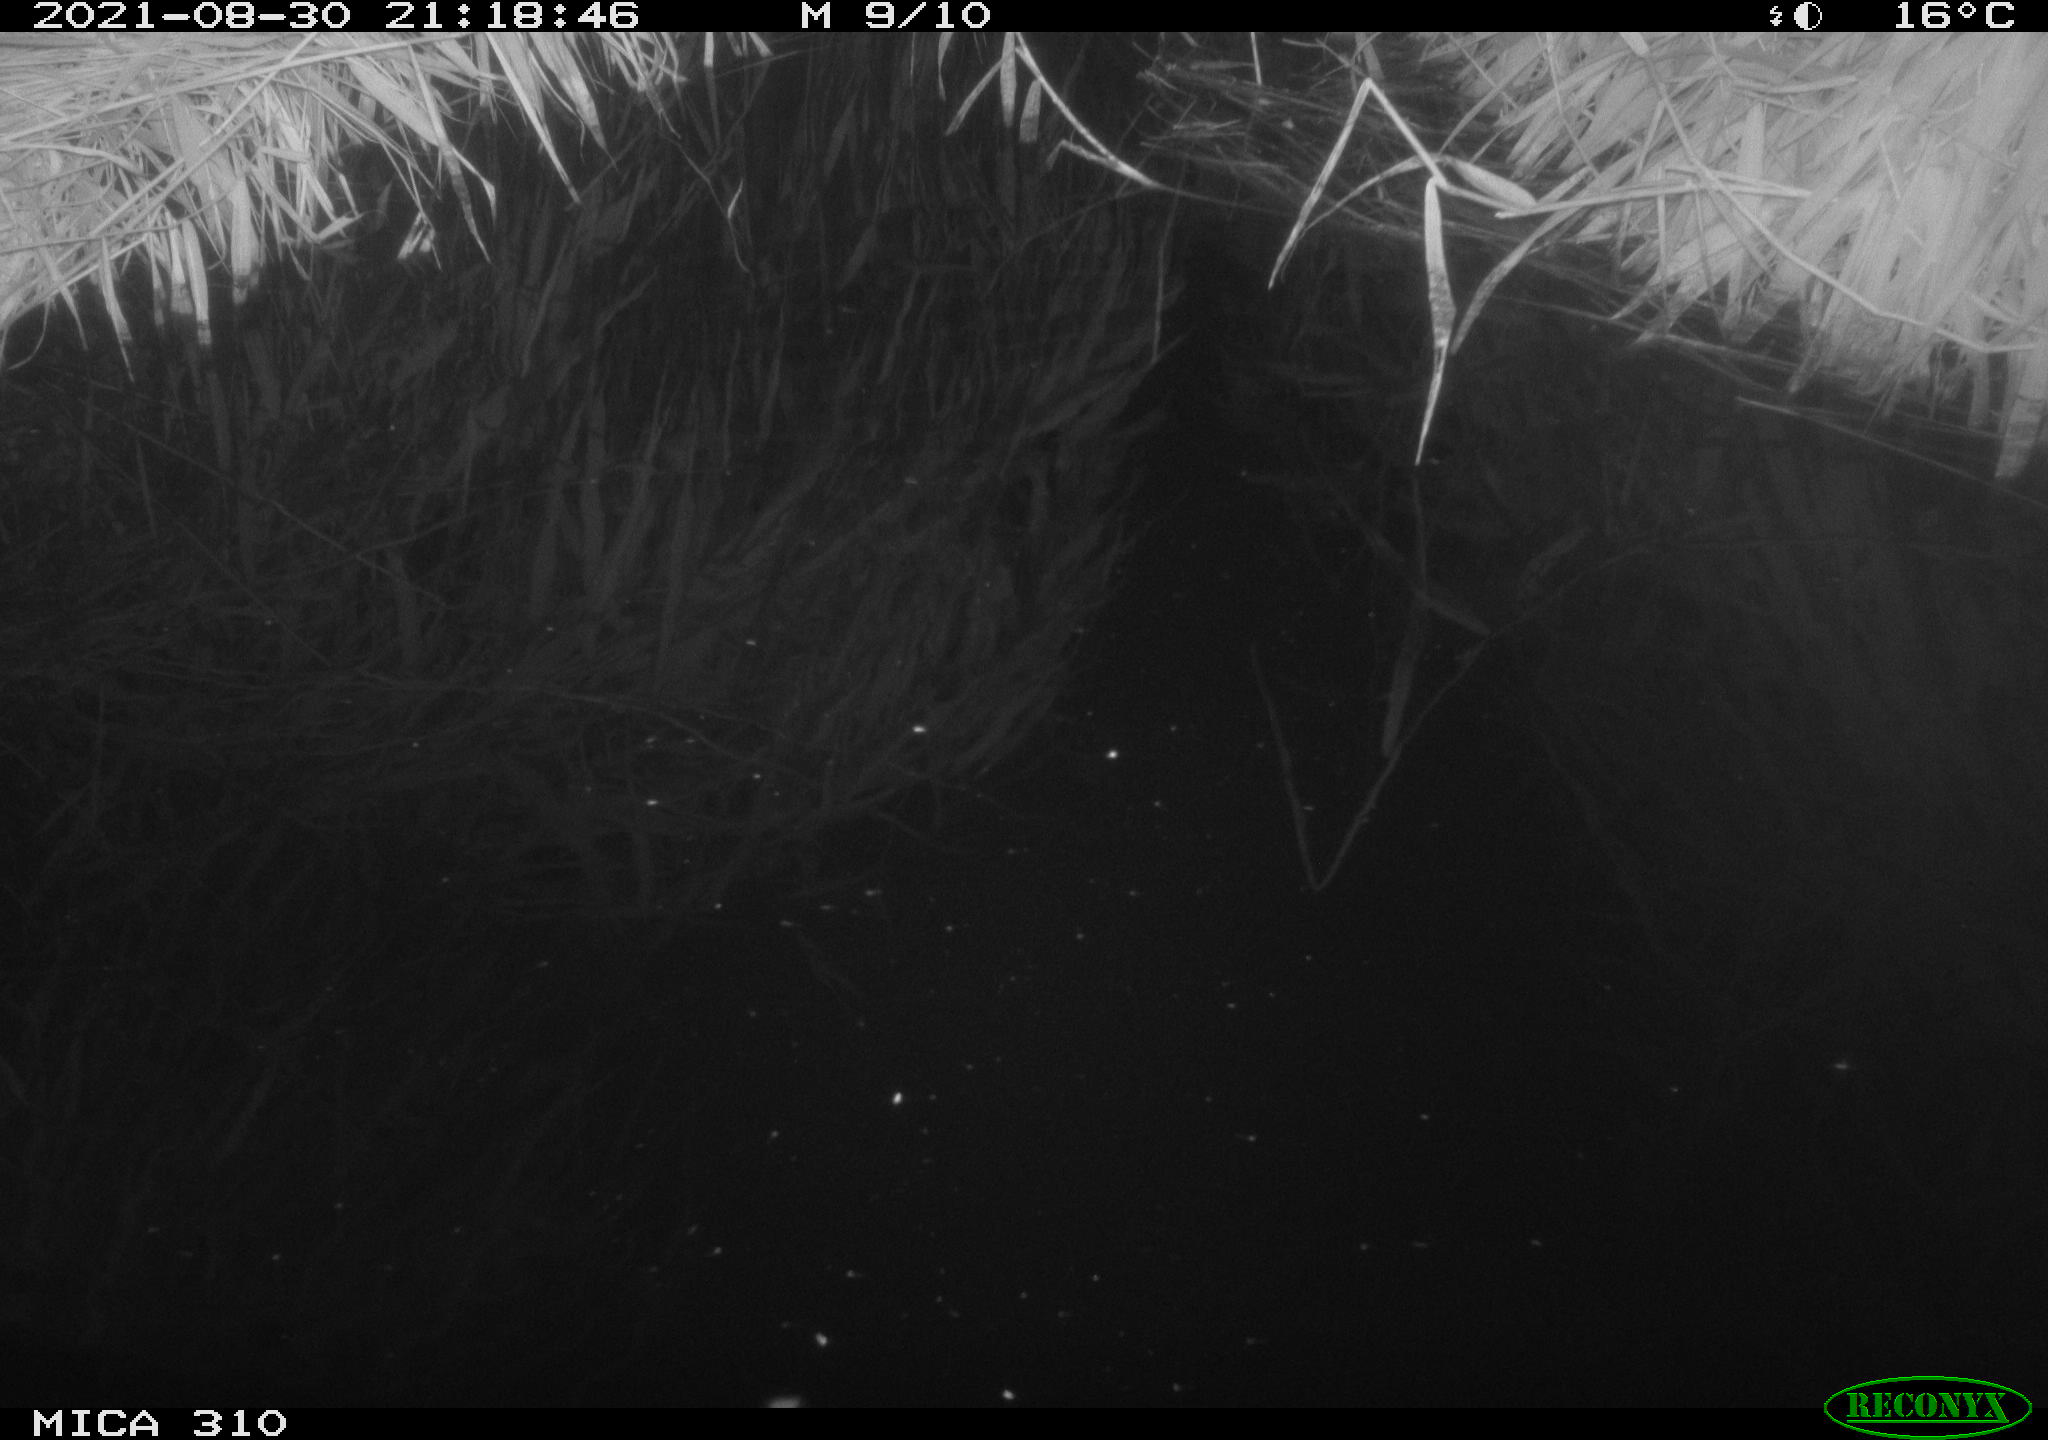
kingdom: Animalia
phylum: Chordata
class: Aves
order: Anseriformes
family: Anatidae
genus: Anas
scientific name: Anas platyrhynchos
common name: Mallard
